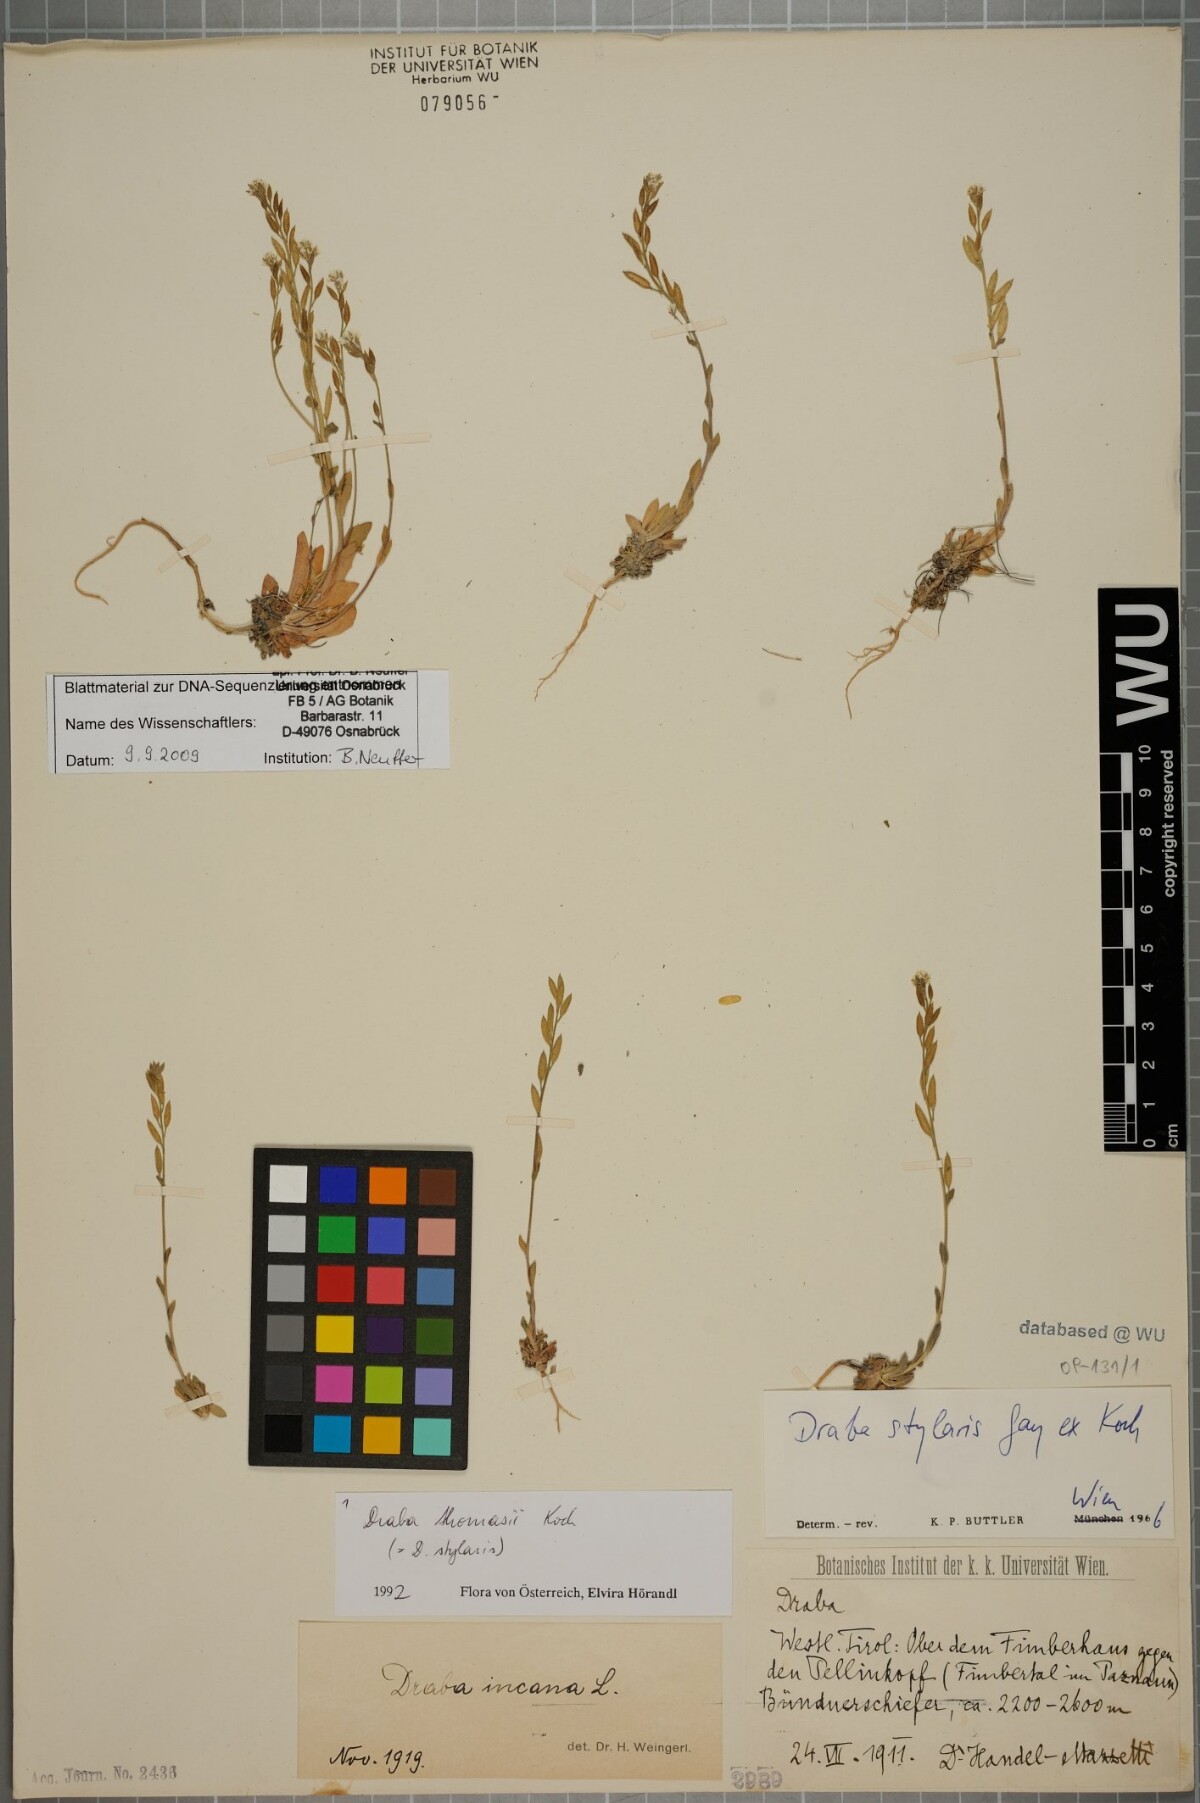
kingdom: Plantae
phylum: Tracheophyta
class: Magnoliopsida
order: Brassicales
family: Brassicaceae
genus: Draba
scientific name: Draba thomasii
